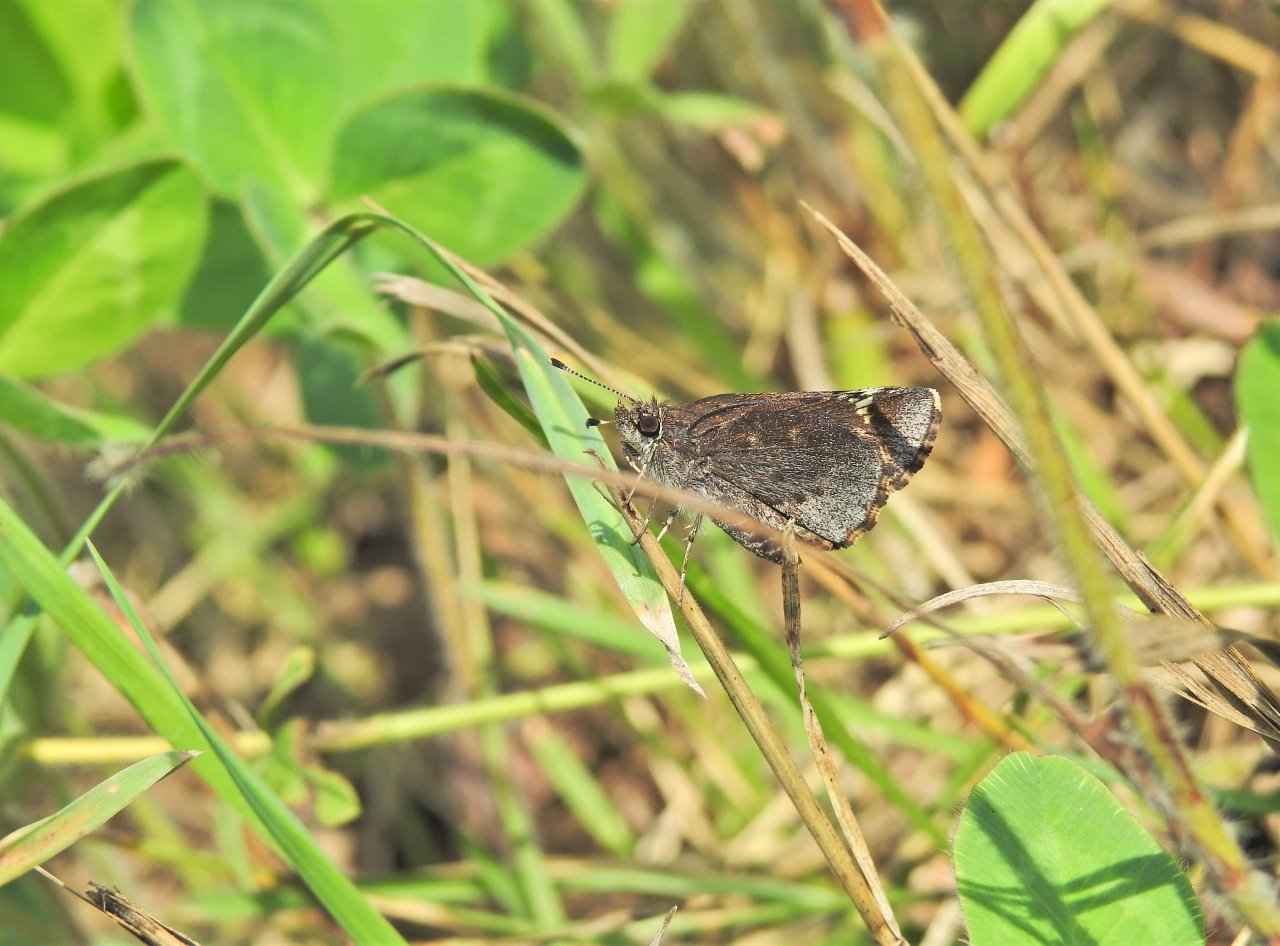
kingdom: Animalia
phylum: Arthropoda
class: Insecta
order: Lepidoptera
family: Hesperiidae
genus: Mastor
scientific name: Mastor vialis
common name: Common Roadside-Skipper
